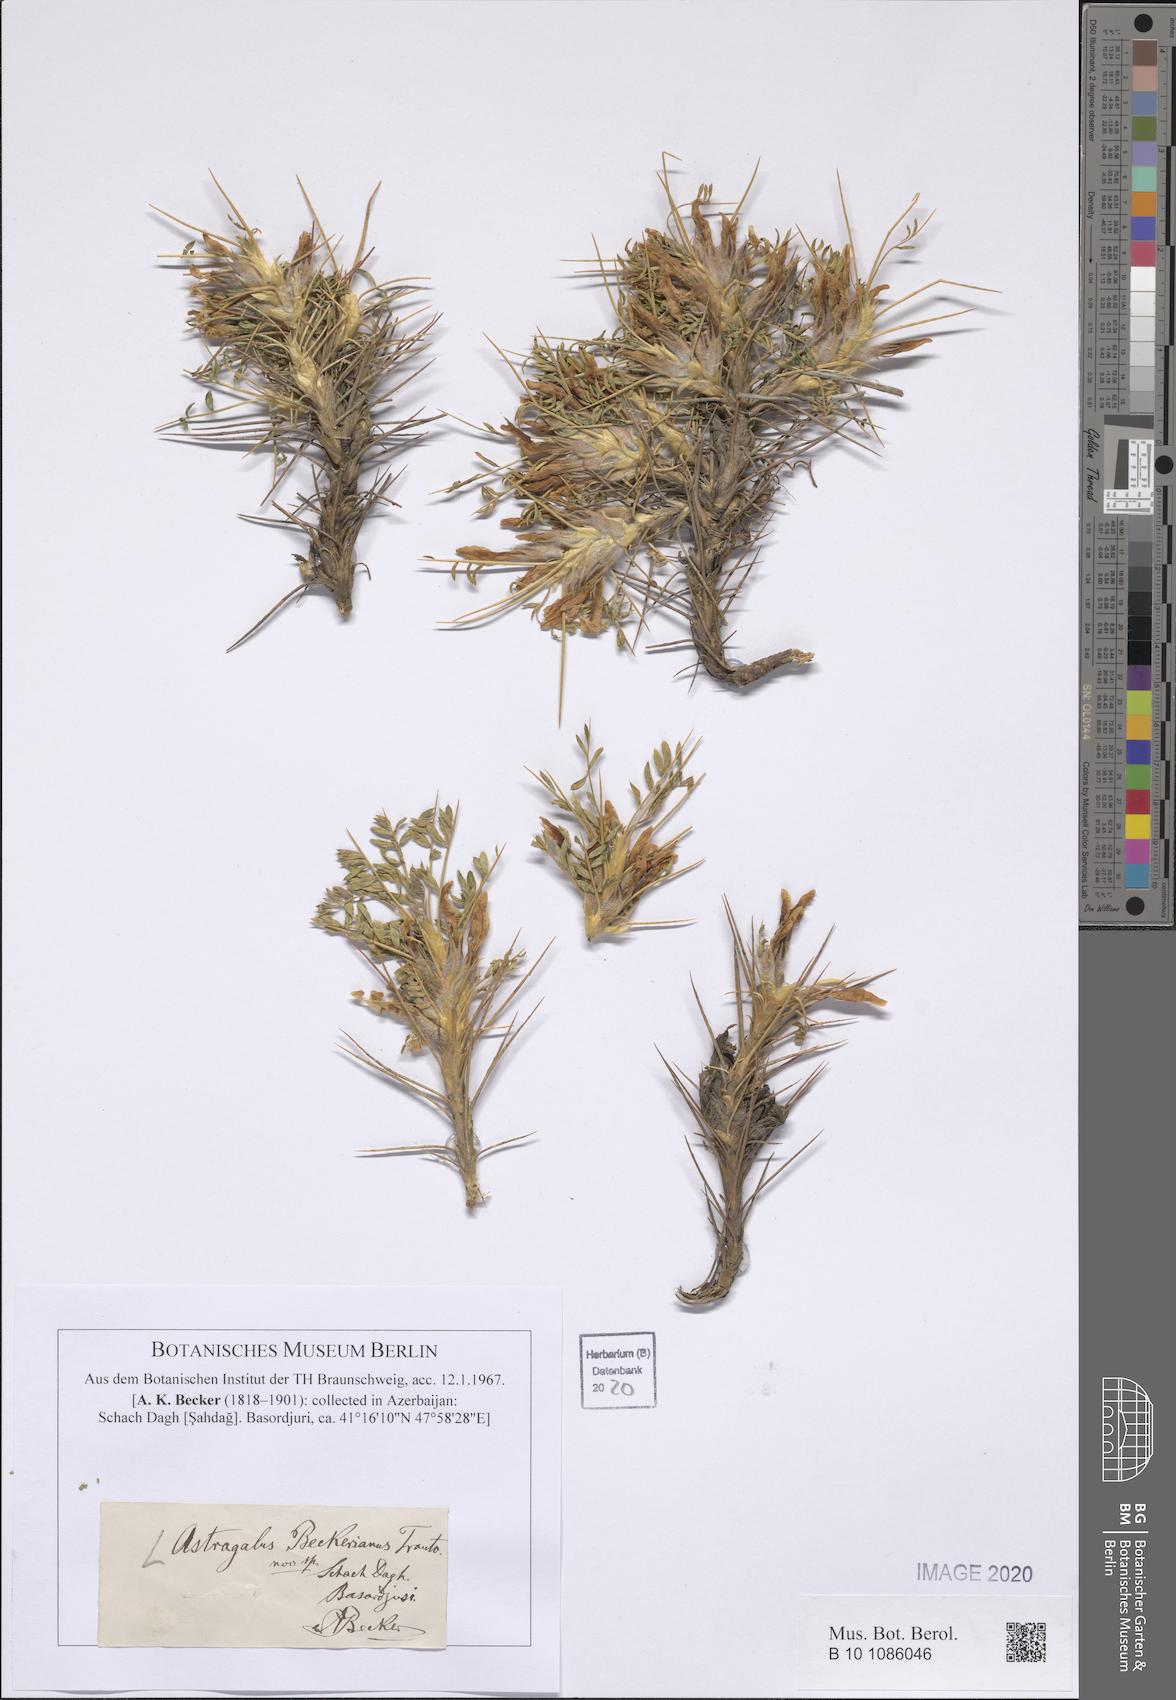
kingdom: Plantae
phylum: Tracheophyta
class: Magnoliopsida
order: Fabales
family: Fabaceae
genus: Astragalus
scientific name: Astragalus beckerianus
